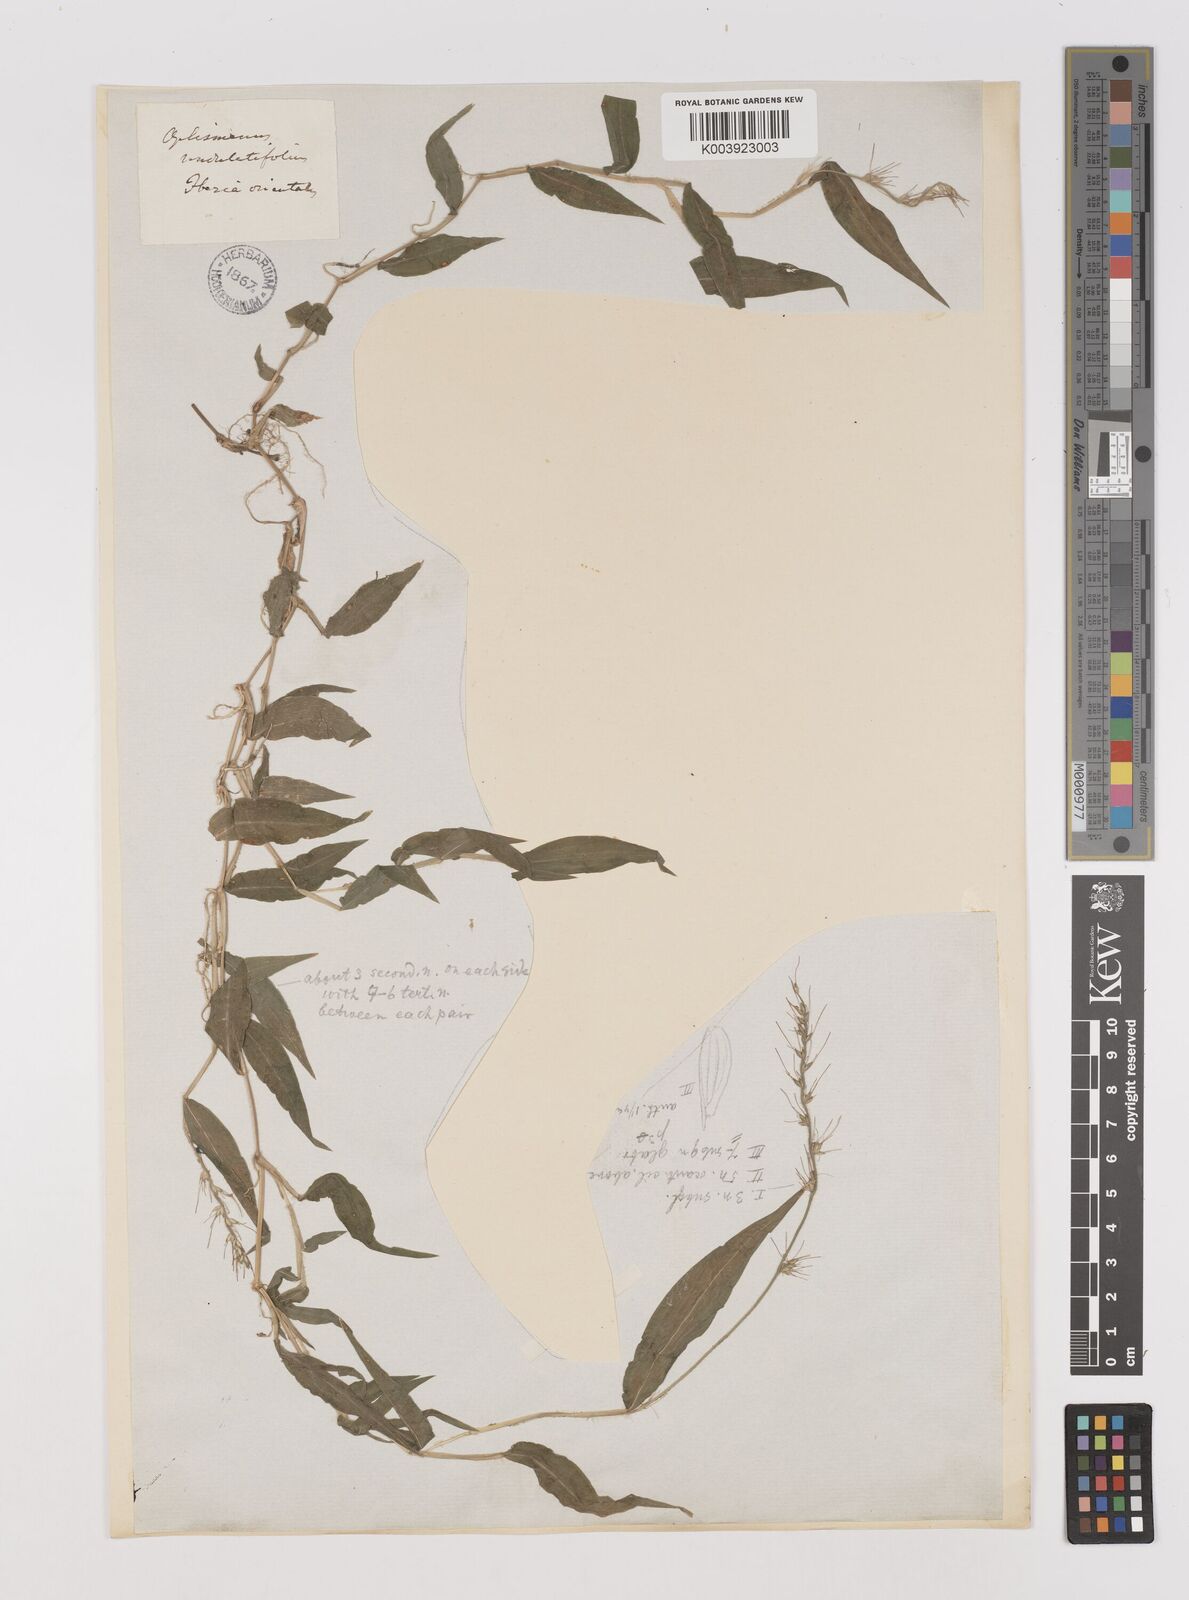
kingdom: Plantae
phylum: Tracheophyta
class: Liliopsida
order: Poales
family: Poaceae
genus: Oplismenus
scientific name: Oplismenus undulatifolius
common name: Wavyleaf basketgrass
